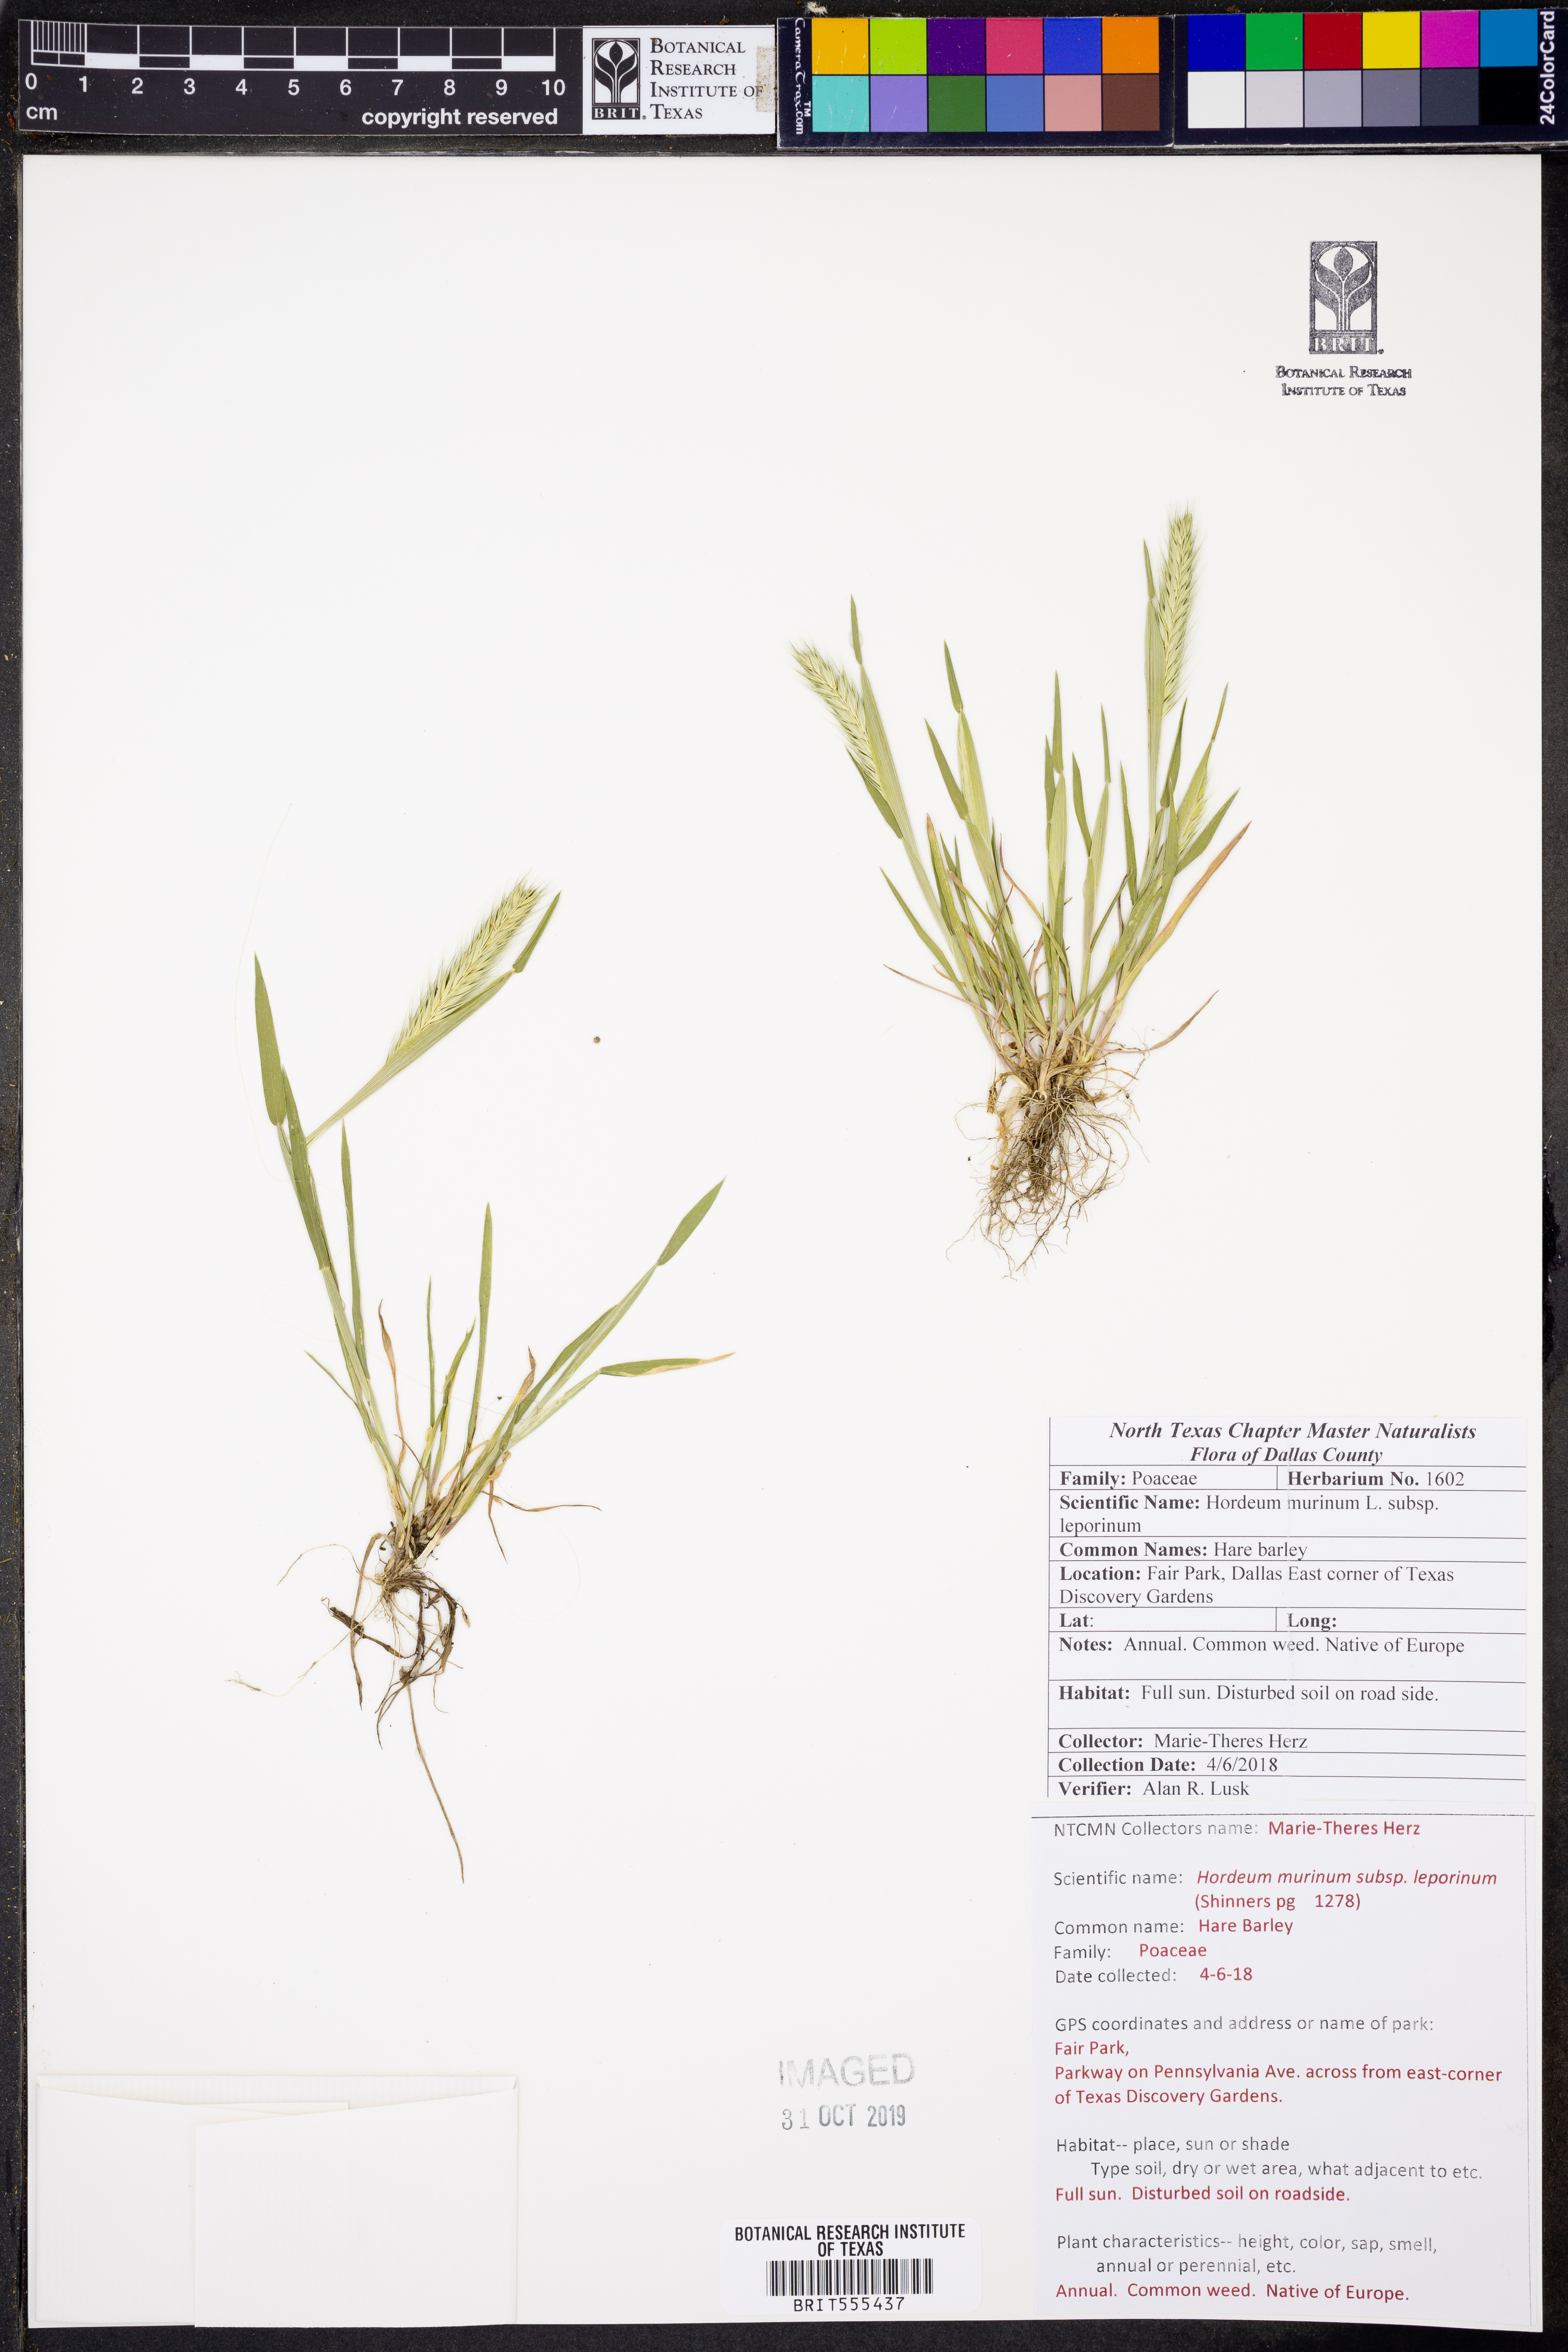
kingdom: Plantae
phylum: Tracheophyta
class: Liliopsida
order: Poales
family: Poaceae
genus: Hordeum
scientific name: Hordeum murinum
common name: Wall barley
